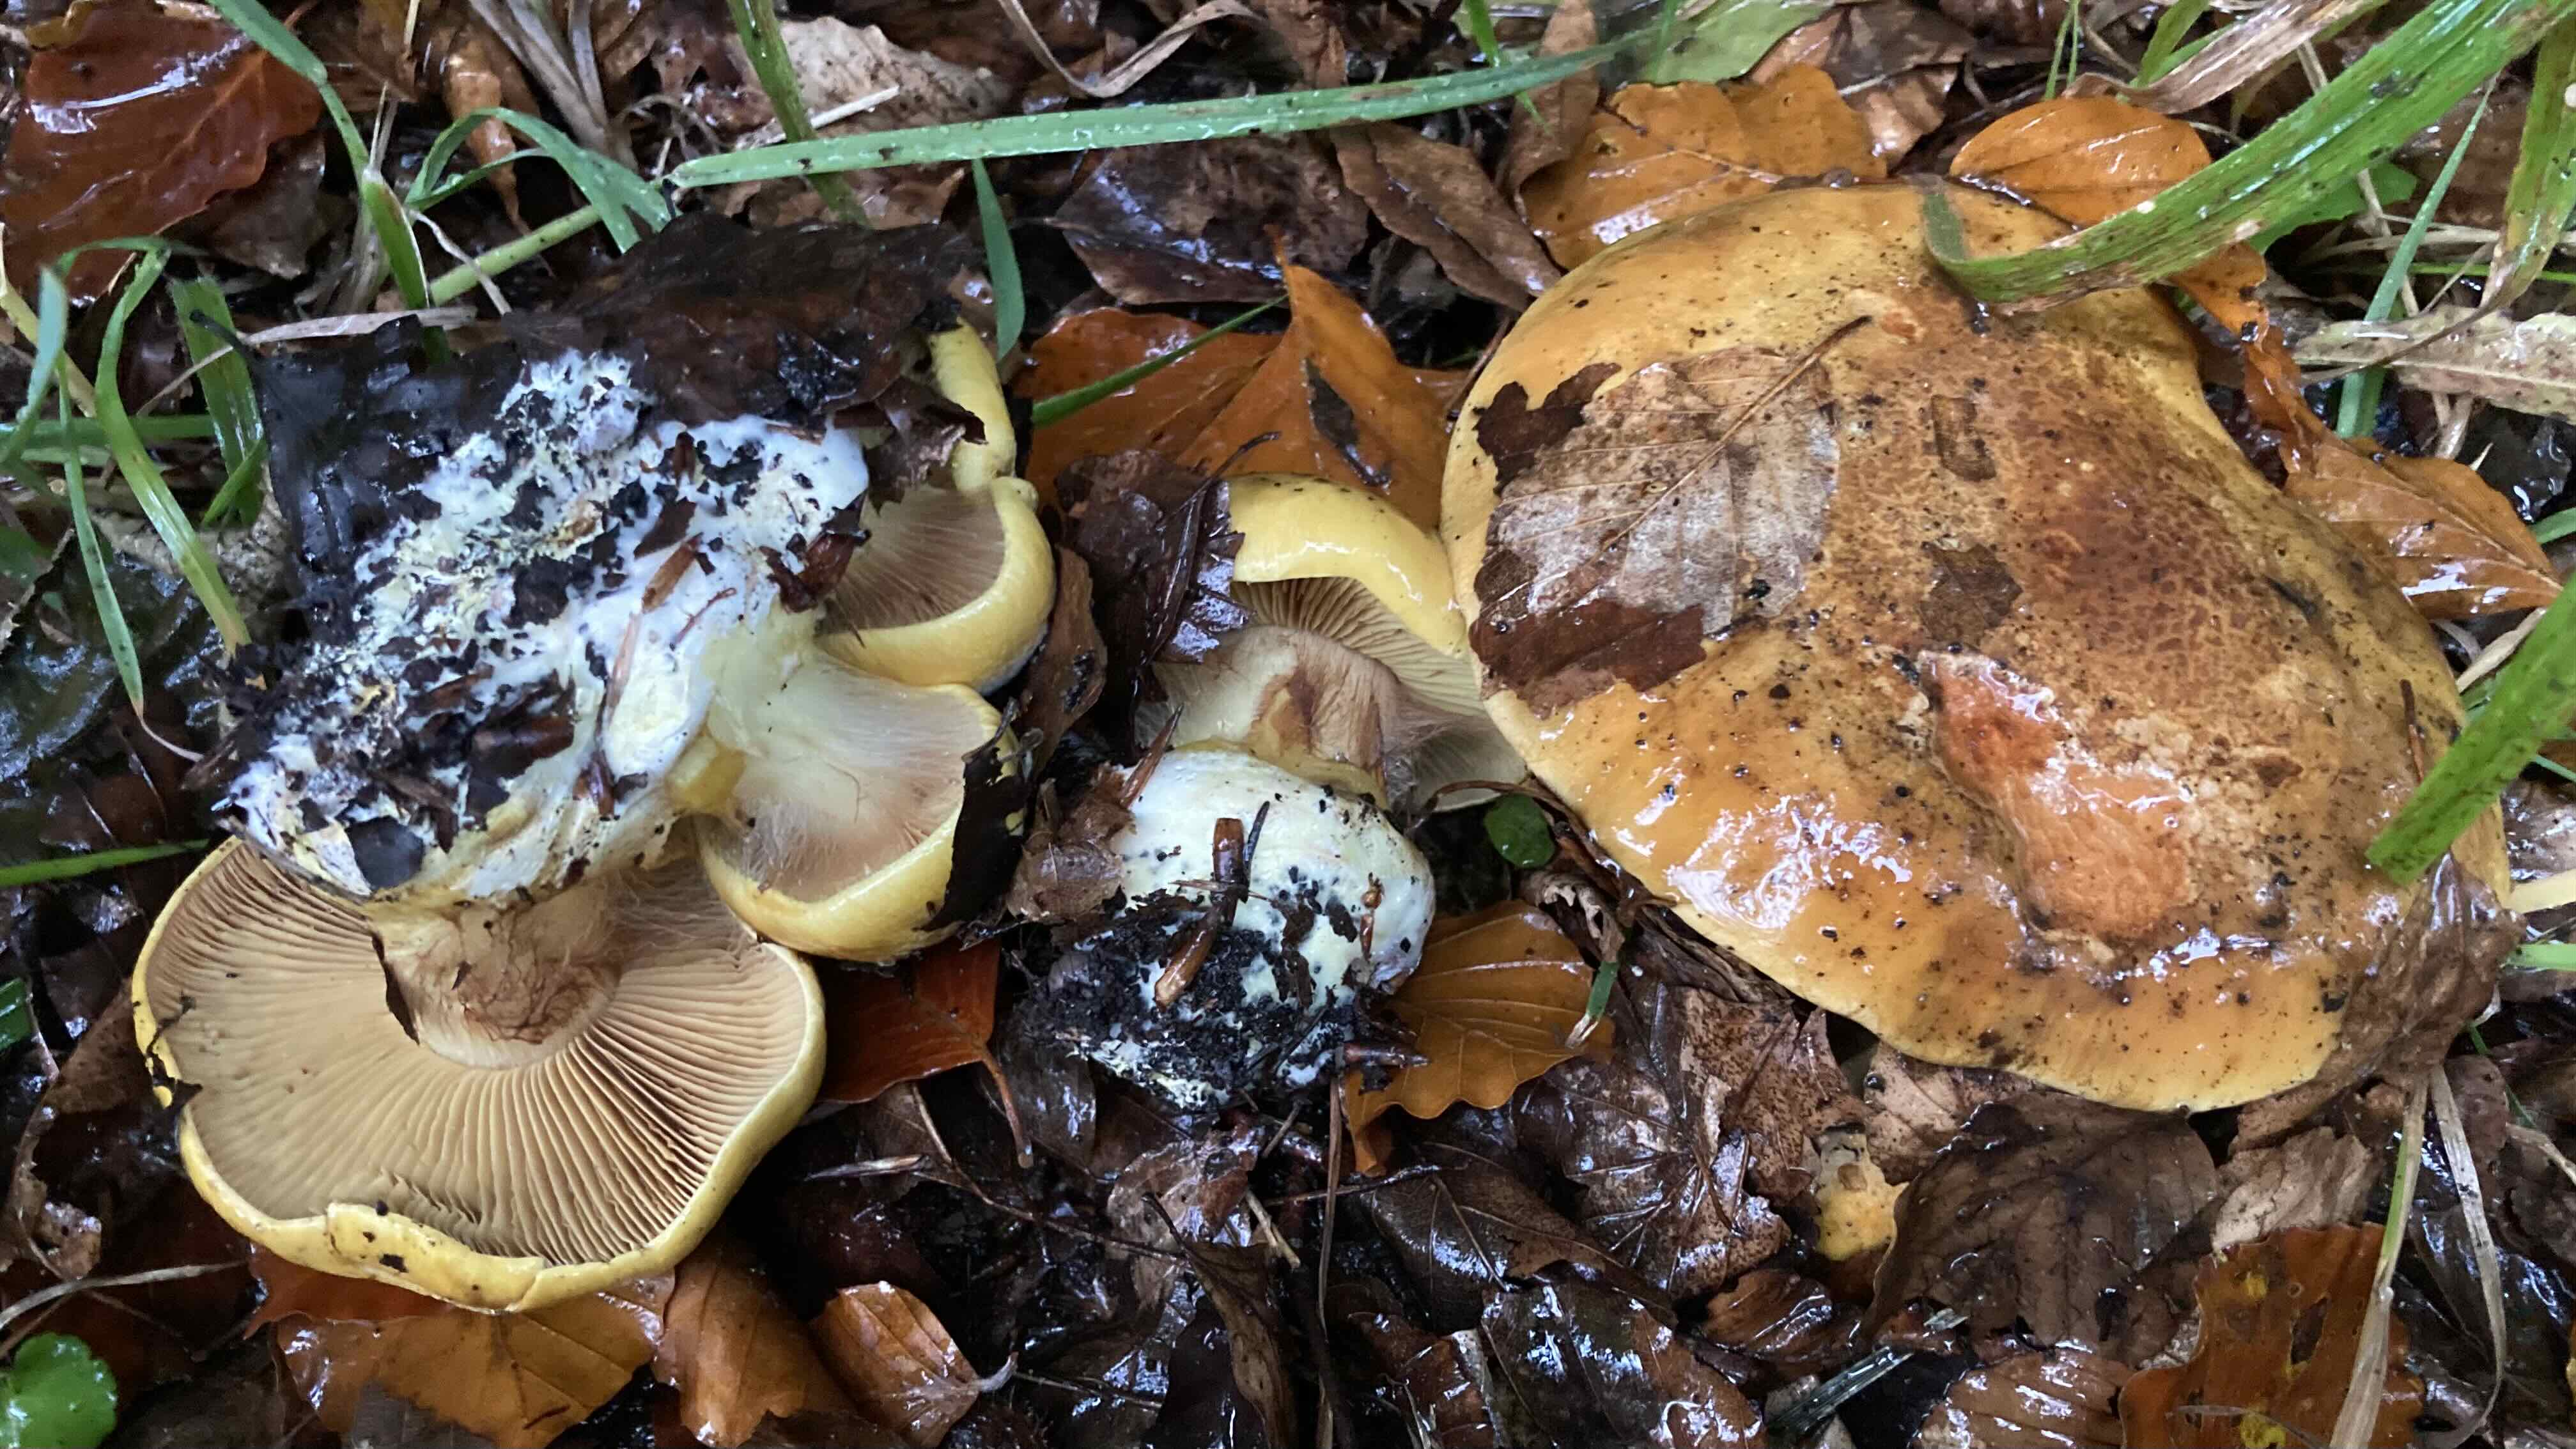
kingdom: Fungi
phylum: Basidiomycota
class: Agaricomycetes
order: Agaricales
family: Cortinariaceae
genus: Calonarius
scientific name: Calonarius alcalinophilus
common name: gyldenbrun slørhat
